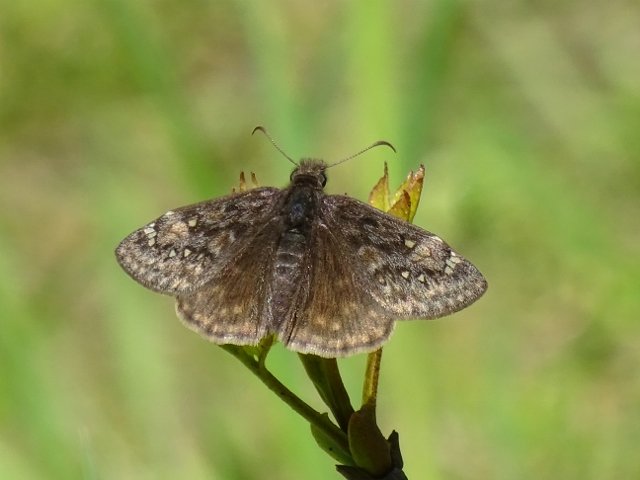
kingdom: Animalia
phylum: Arthropoda
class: Insecta
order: Lepidoptera
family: Hesperiidae
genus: Gesta
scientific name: Gesta
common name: Juvenal's Duskywing
